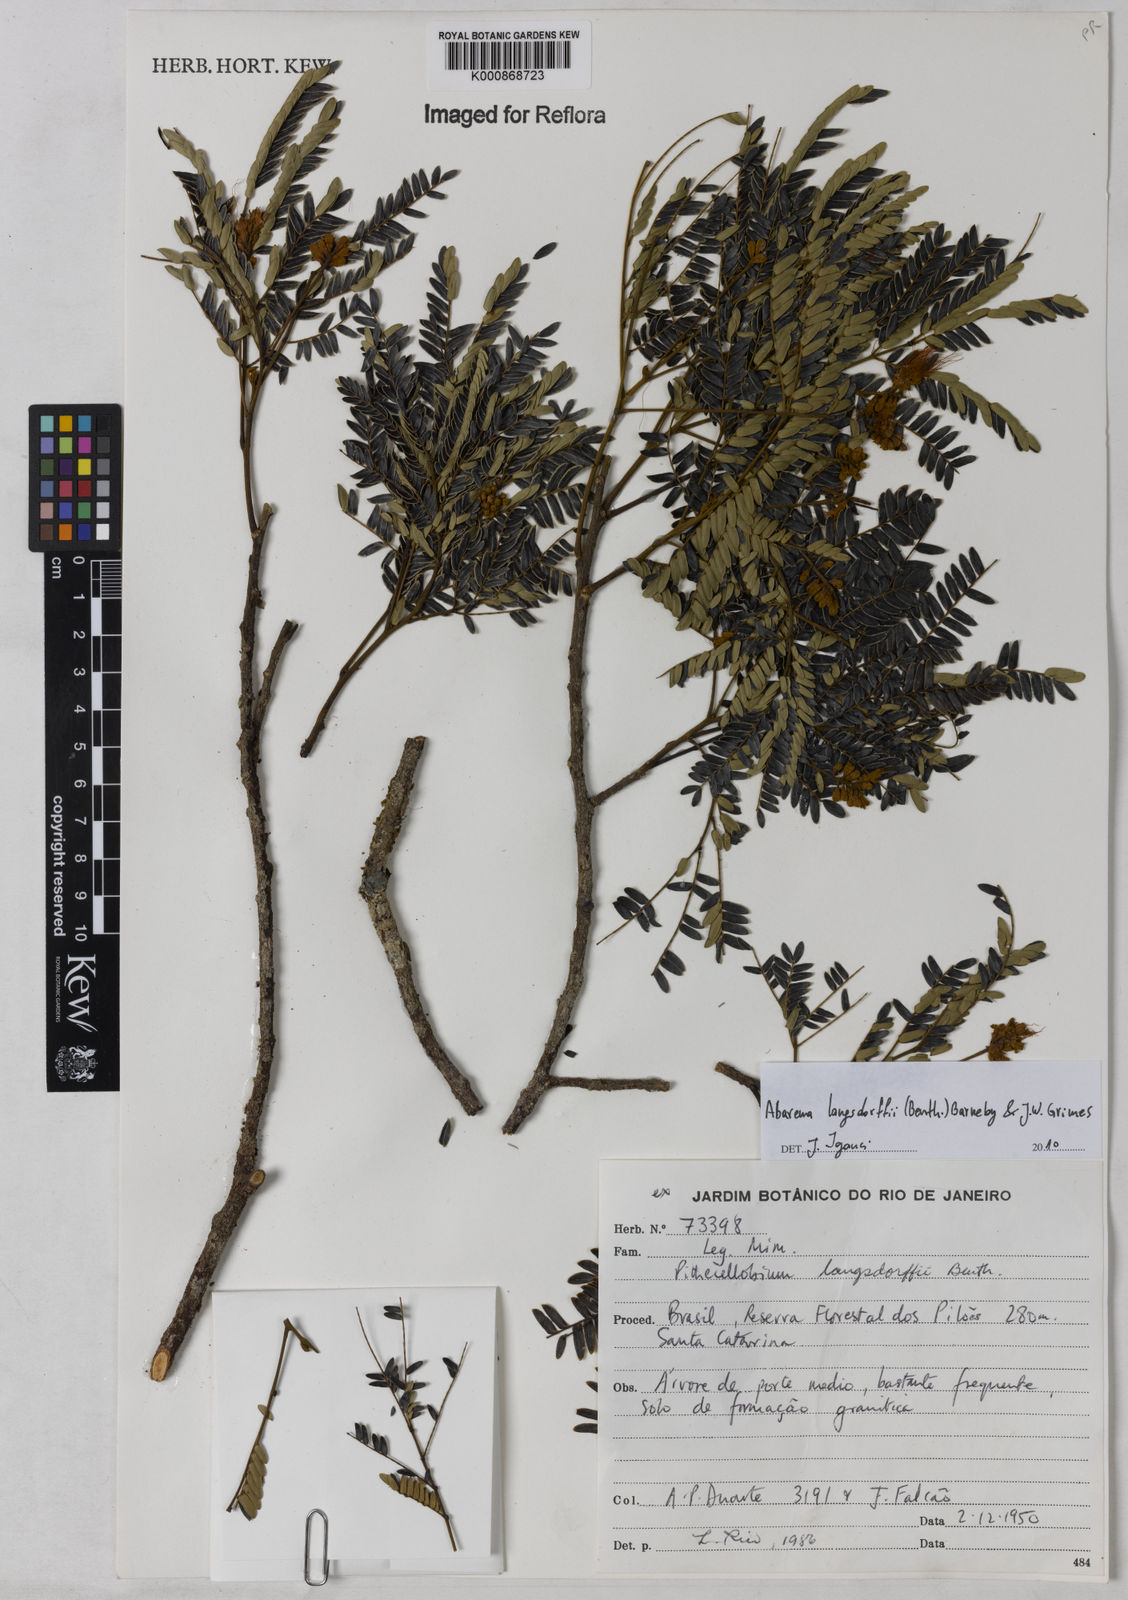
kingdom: Plantae
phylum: Tracheophyta
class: Magnoliopsida
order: Fabales
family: Fabaceae
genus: Jupunba
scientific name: Jupunba langsdorffii
